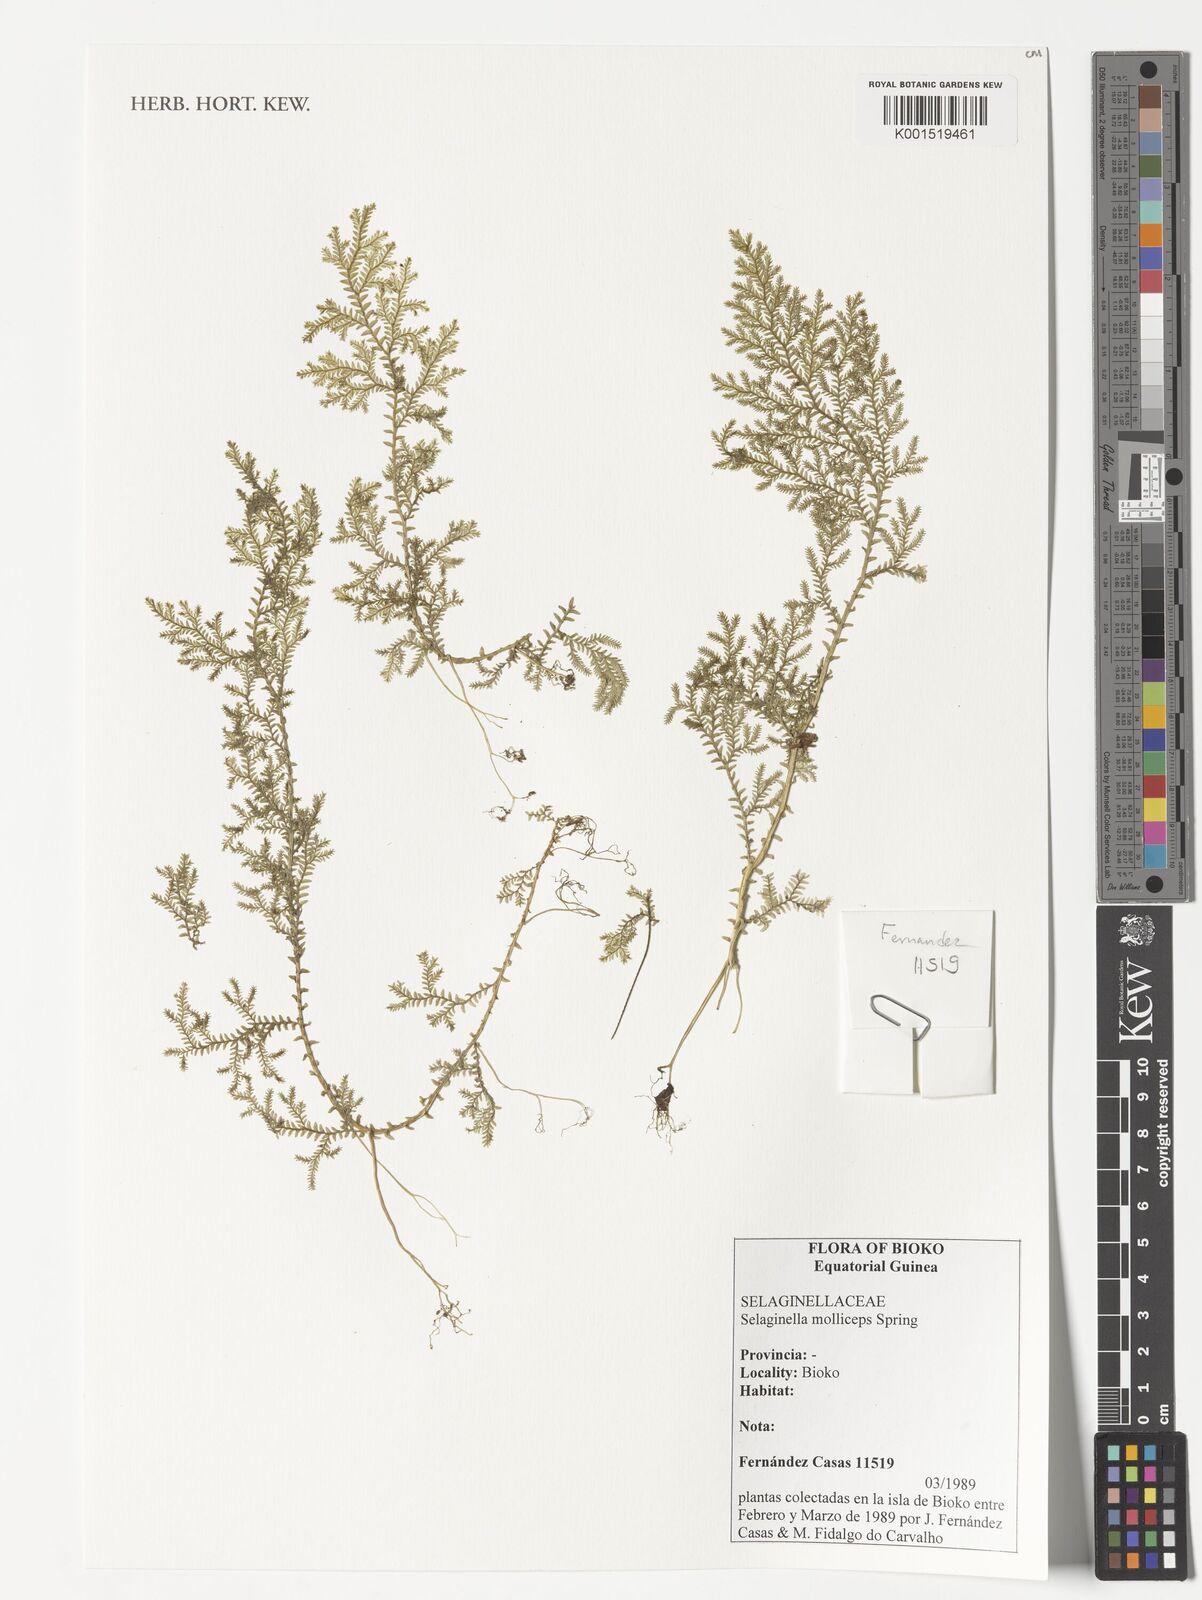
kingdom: Plantae
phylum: Tracheophyta
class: Lycopodiopsida
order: Selaginellales
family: Selaginellaceae
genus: Selaginella
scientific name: Selaginella molliceps
